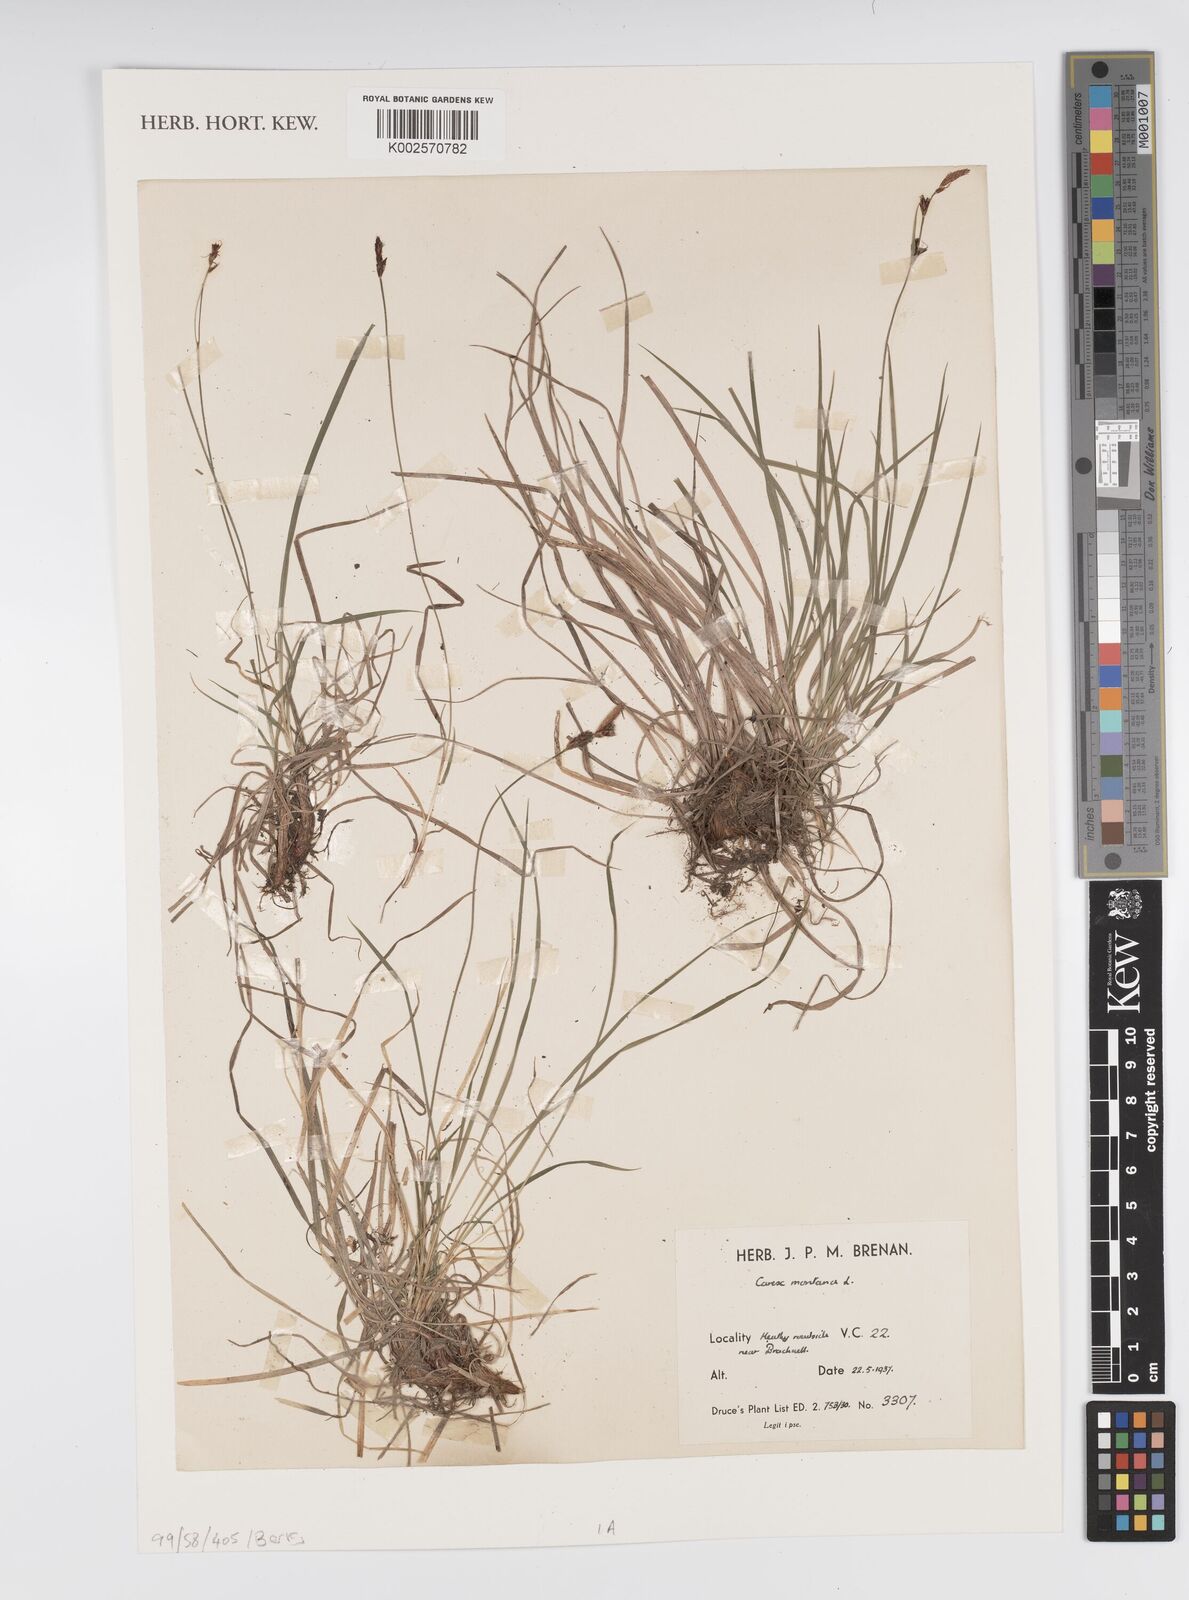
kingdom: Plantae
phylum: Tracheophyta
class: Liliopsida
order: Poales
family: Cyperaceae
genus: Carex
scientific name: Carex montana
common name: Soft-leaved sedge
